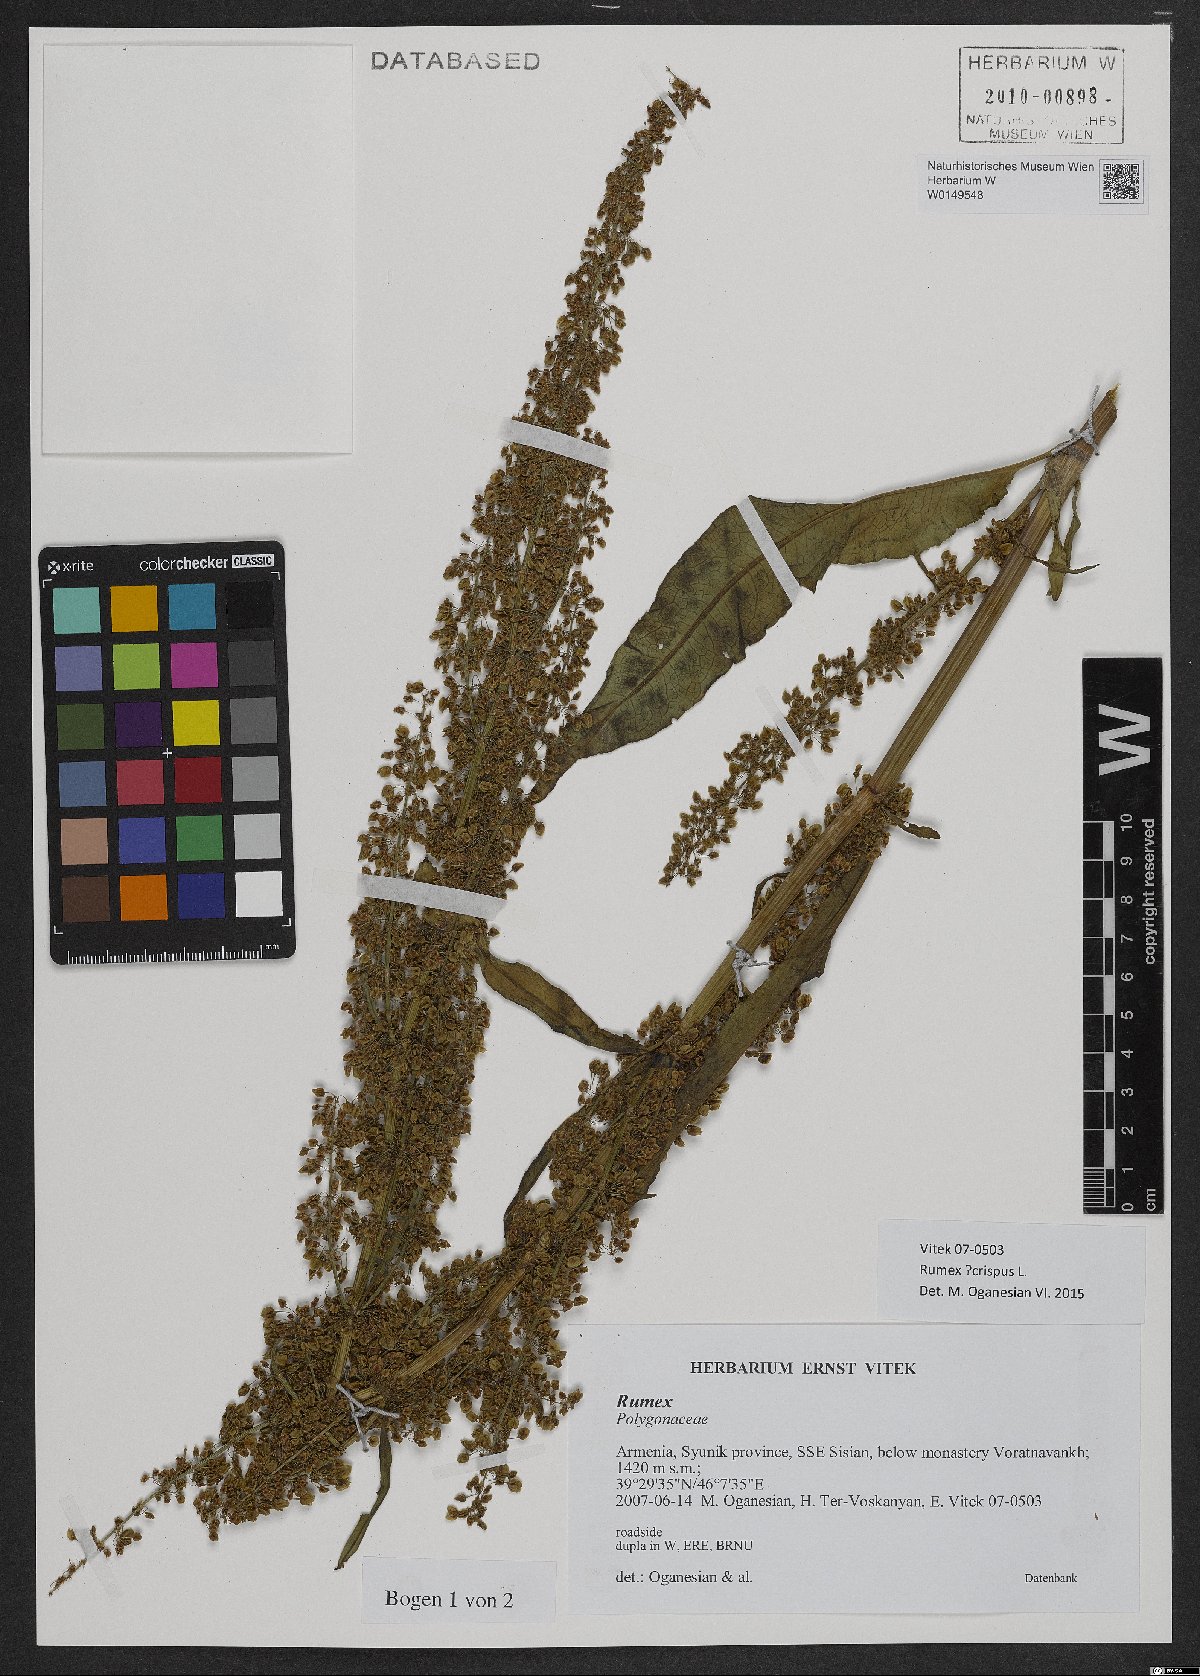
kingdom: Plantae
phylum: Tracheophyta
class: Magnoliopsida
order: Caryophyllales
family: Polygonaceae
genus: Rumex
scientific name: Rumex crispus
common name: Curled dock
